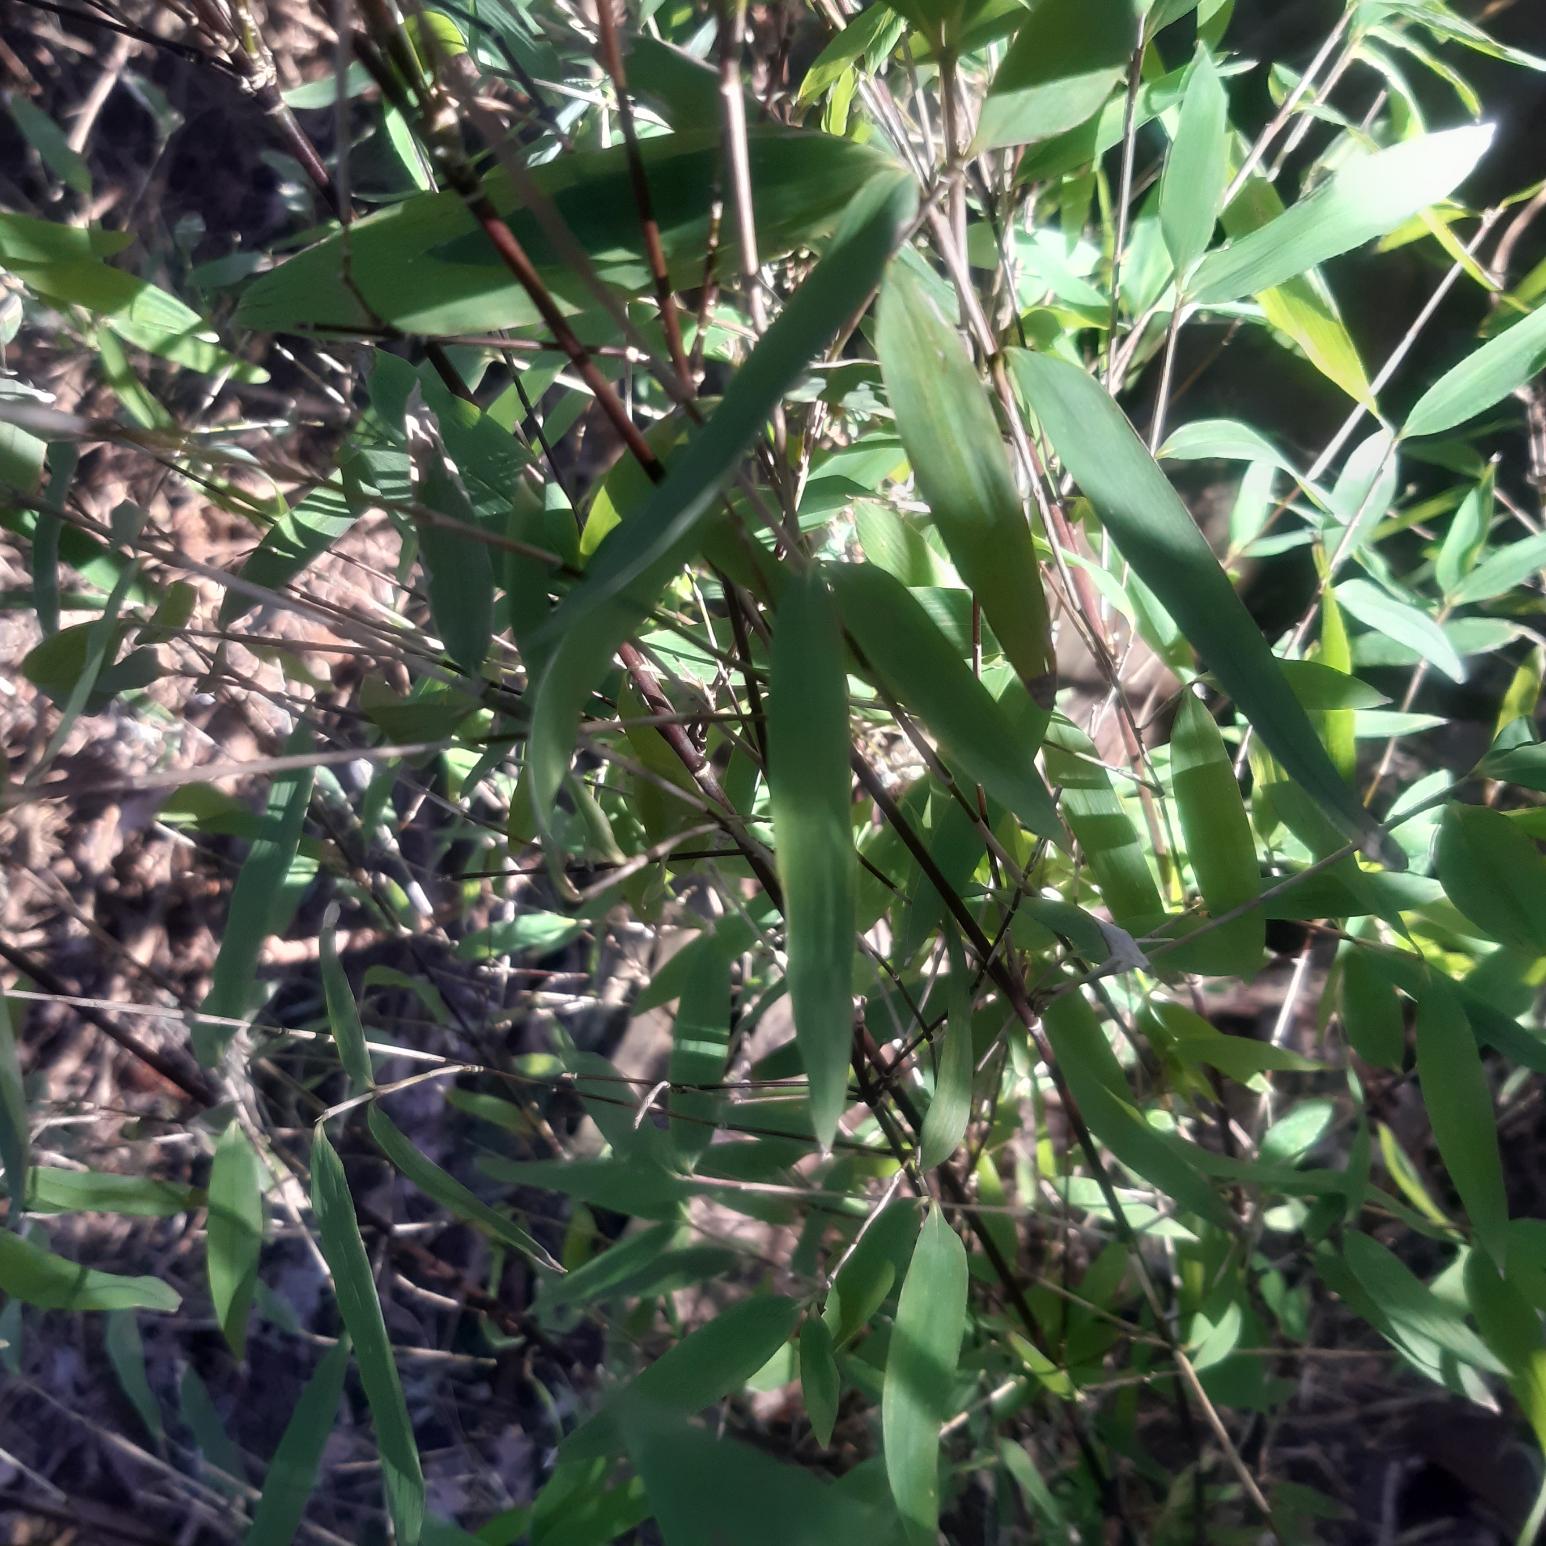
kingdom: Plantae
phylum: Tracheophyta
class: Liliopsida
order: Poales
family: Poaceae
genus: Fargesia
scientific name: Fargesia spathacea
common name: Sort bambus
